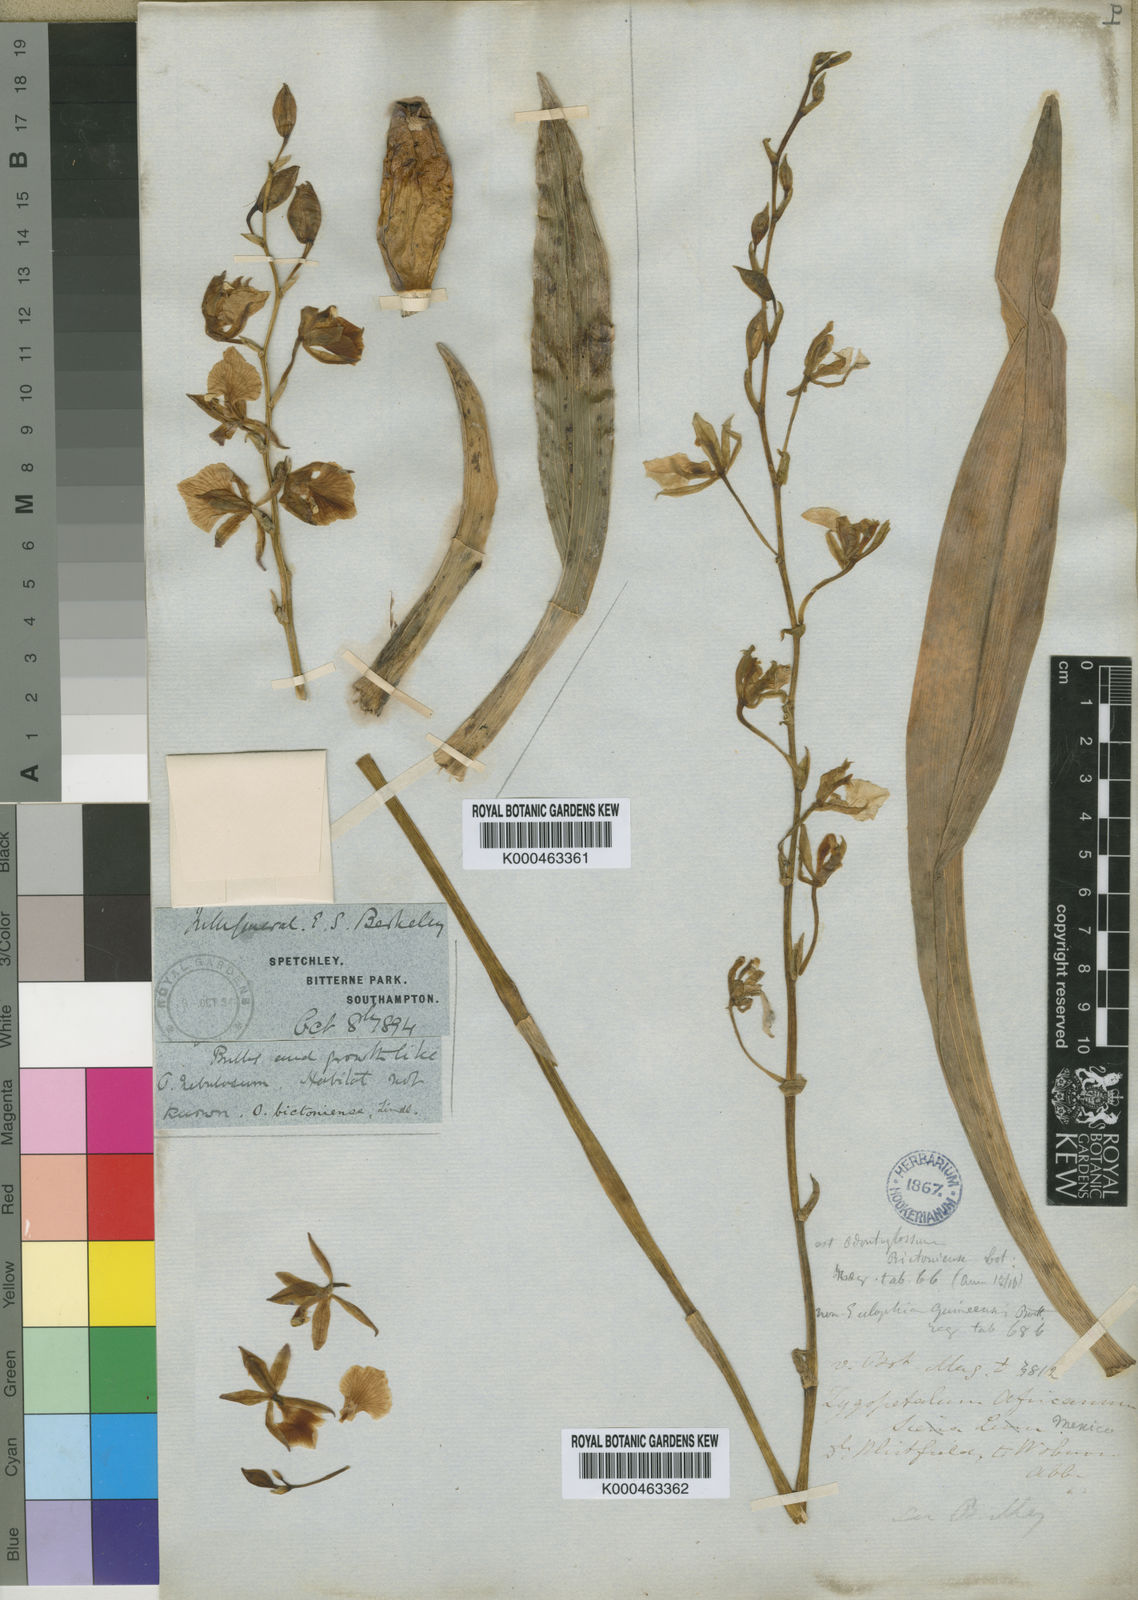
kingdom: Plantae
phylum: Tracheophyta
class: Liliopsida
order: Asparagales
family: Orchidaceae
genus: Rhynchostele
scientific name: Rhynchostele bictoniensis
